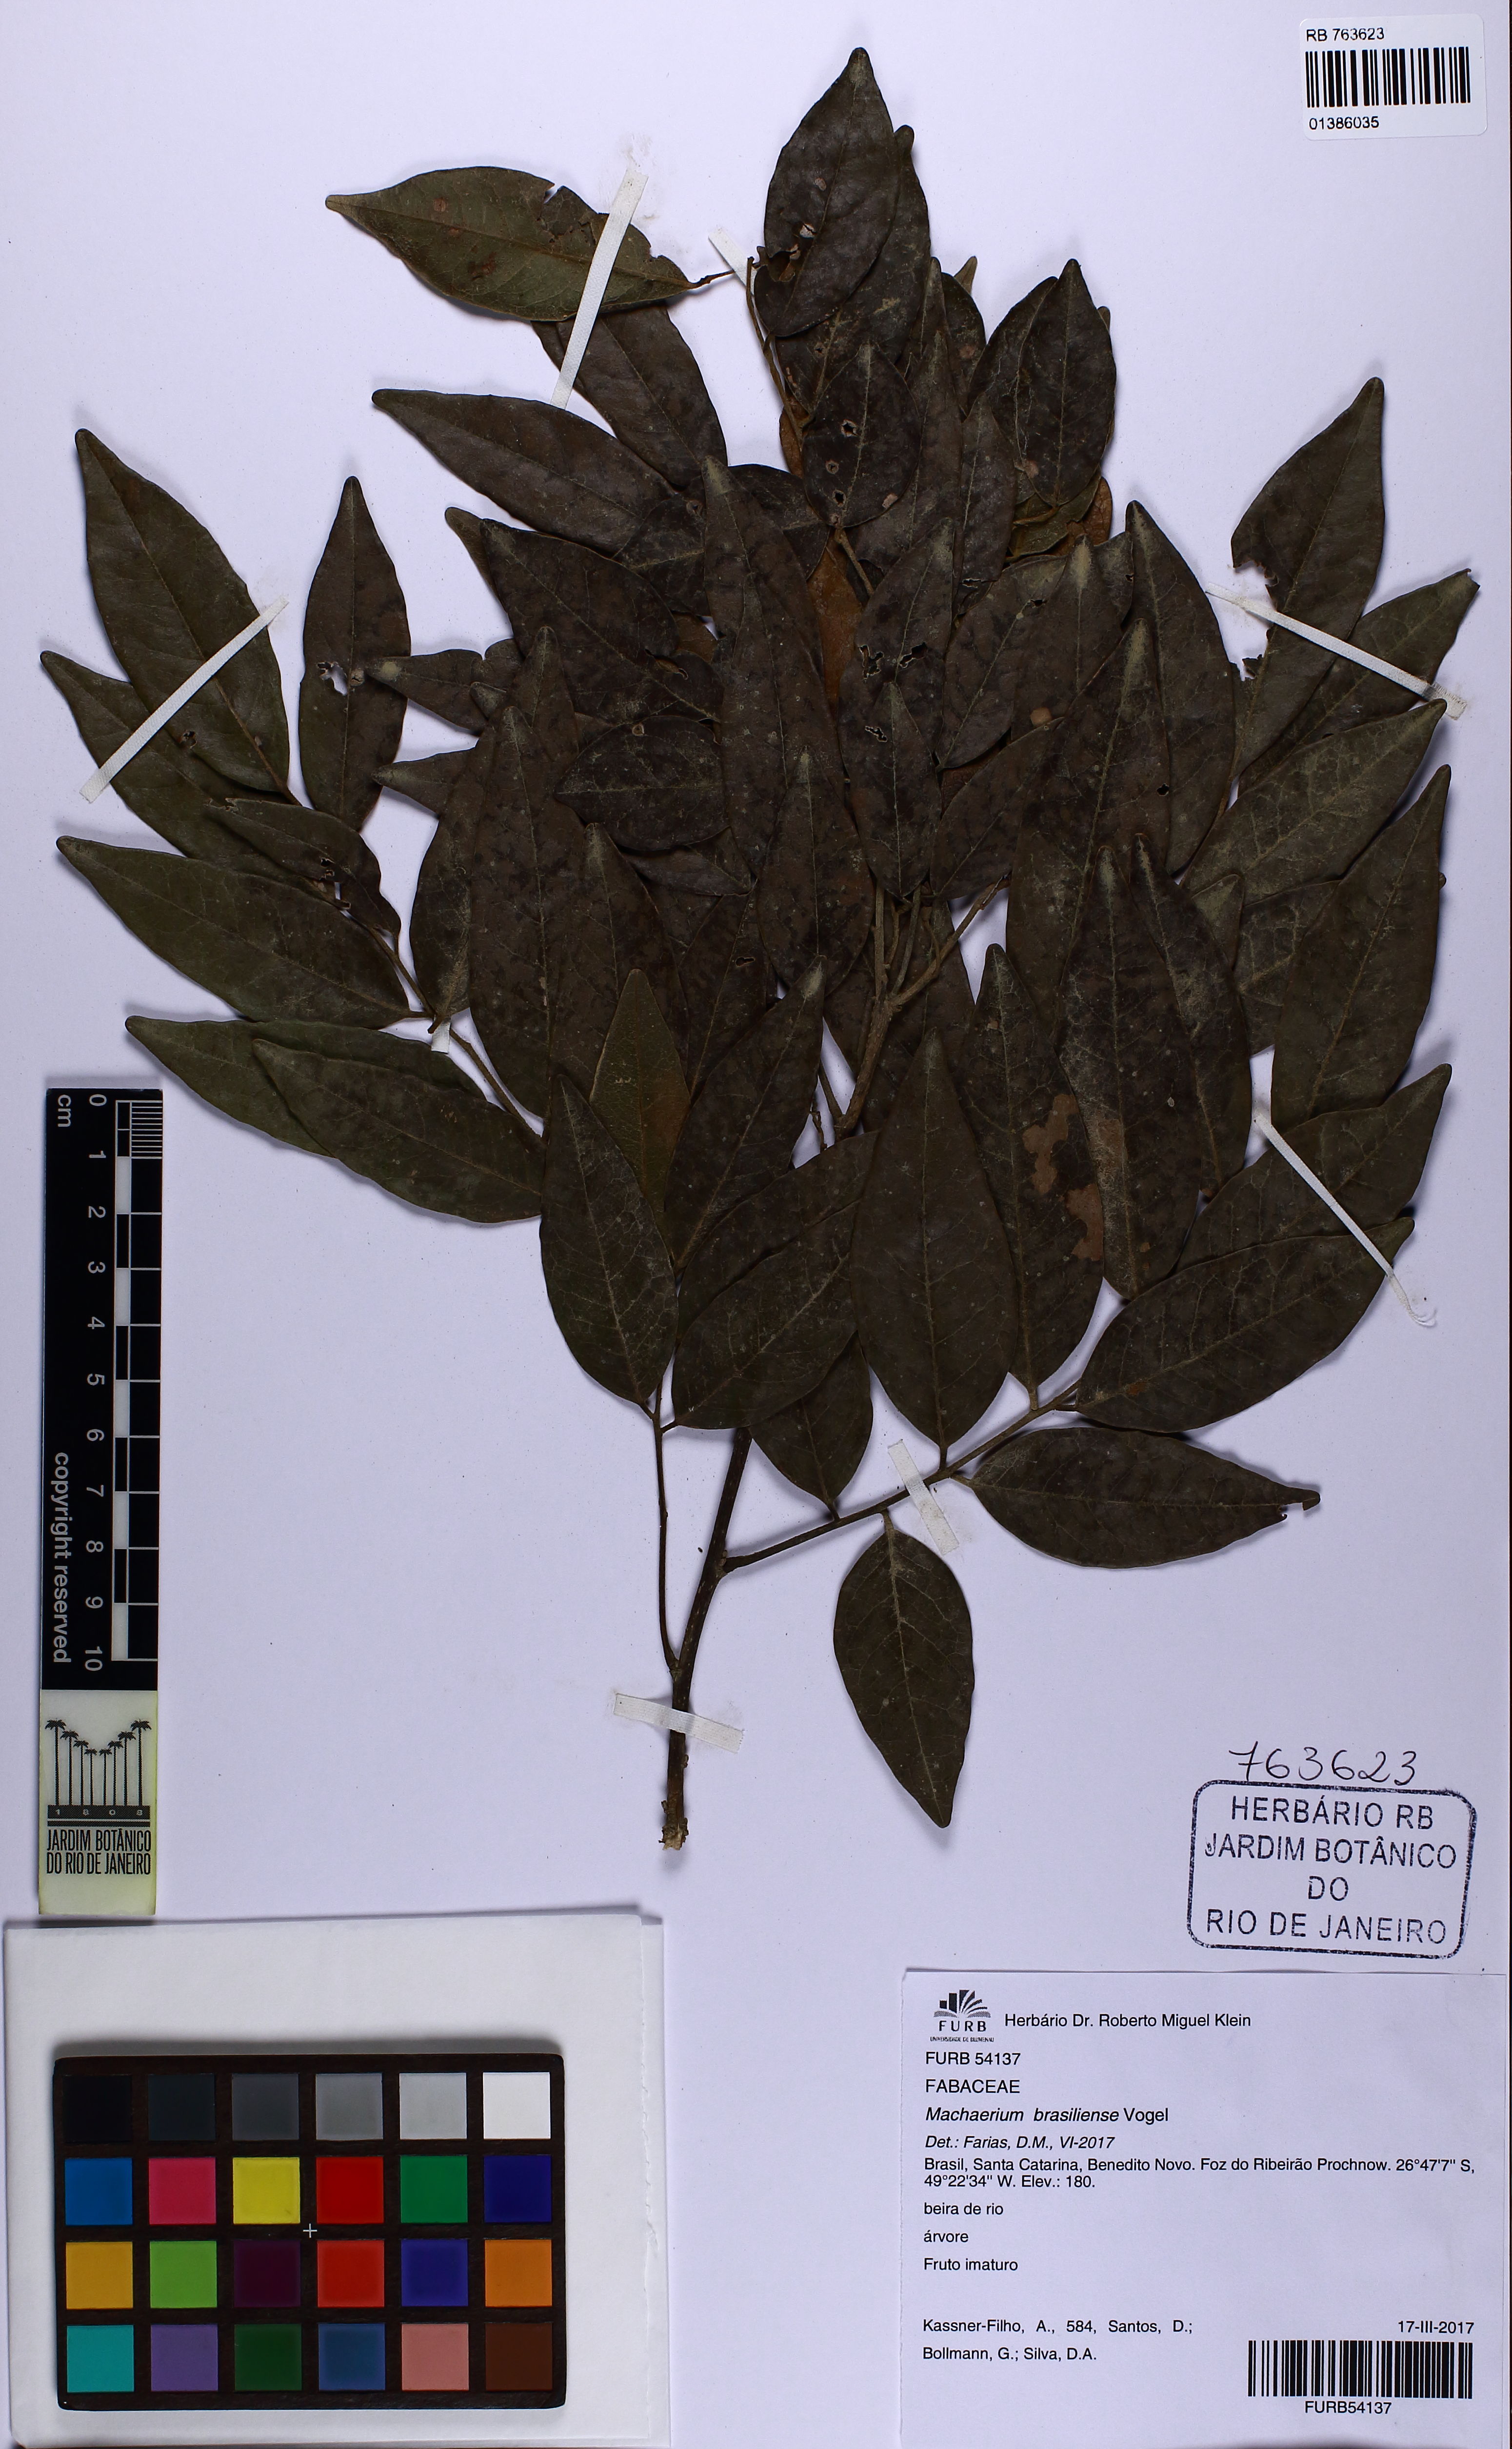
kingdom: Plantae
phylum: Tracheophyta
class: Magnoliopsida
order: Fabales
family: Fabaceae
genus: Machaerium
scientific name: Machaerium brasiliense
